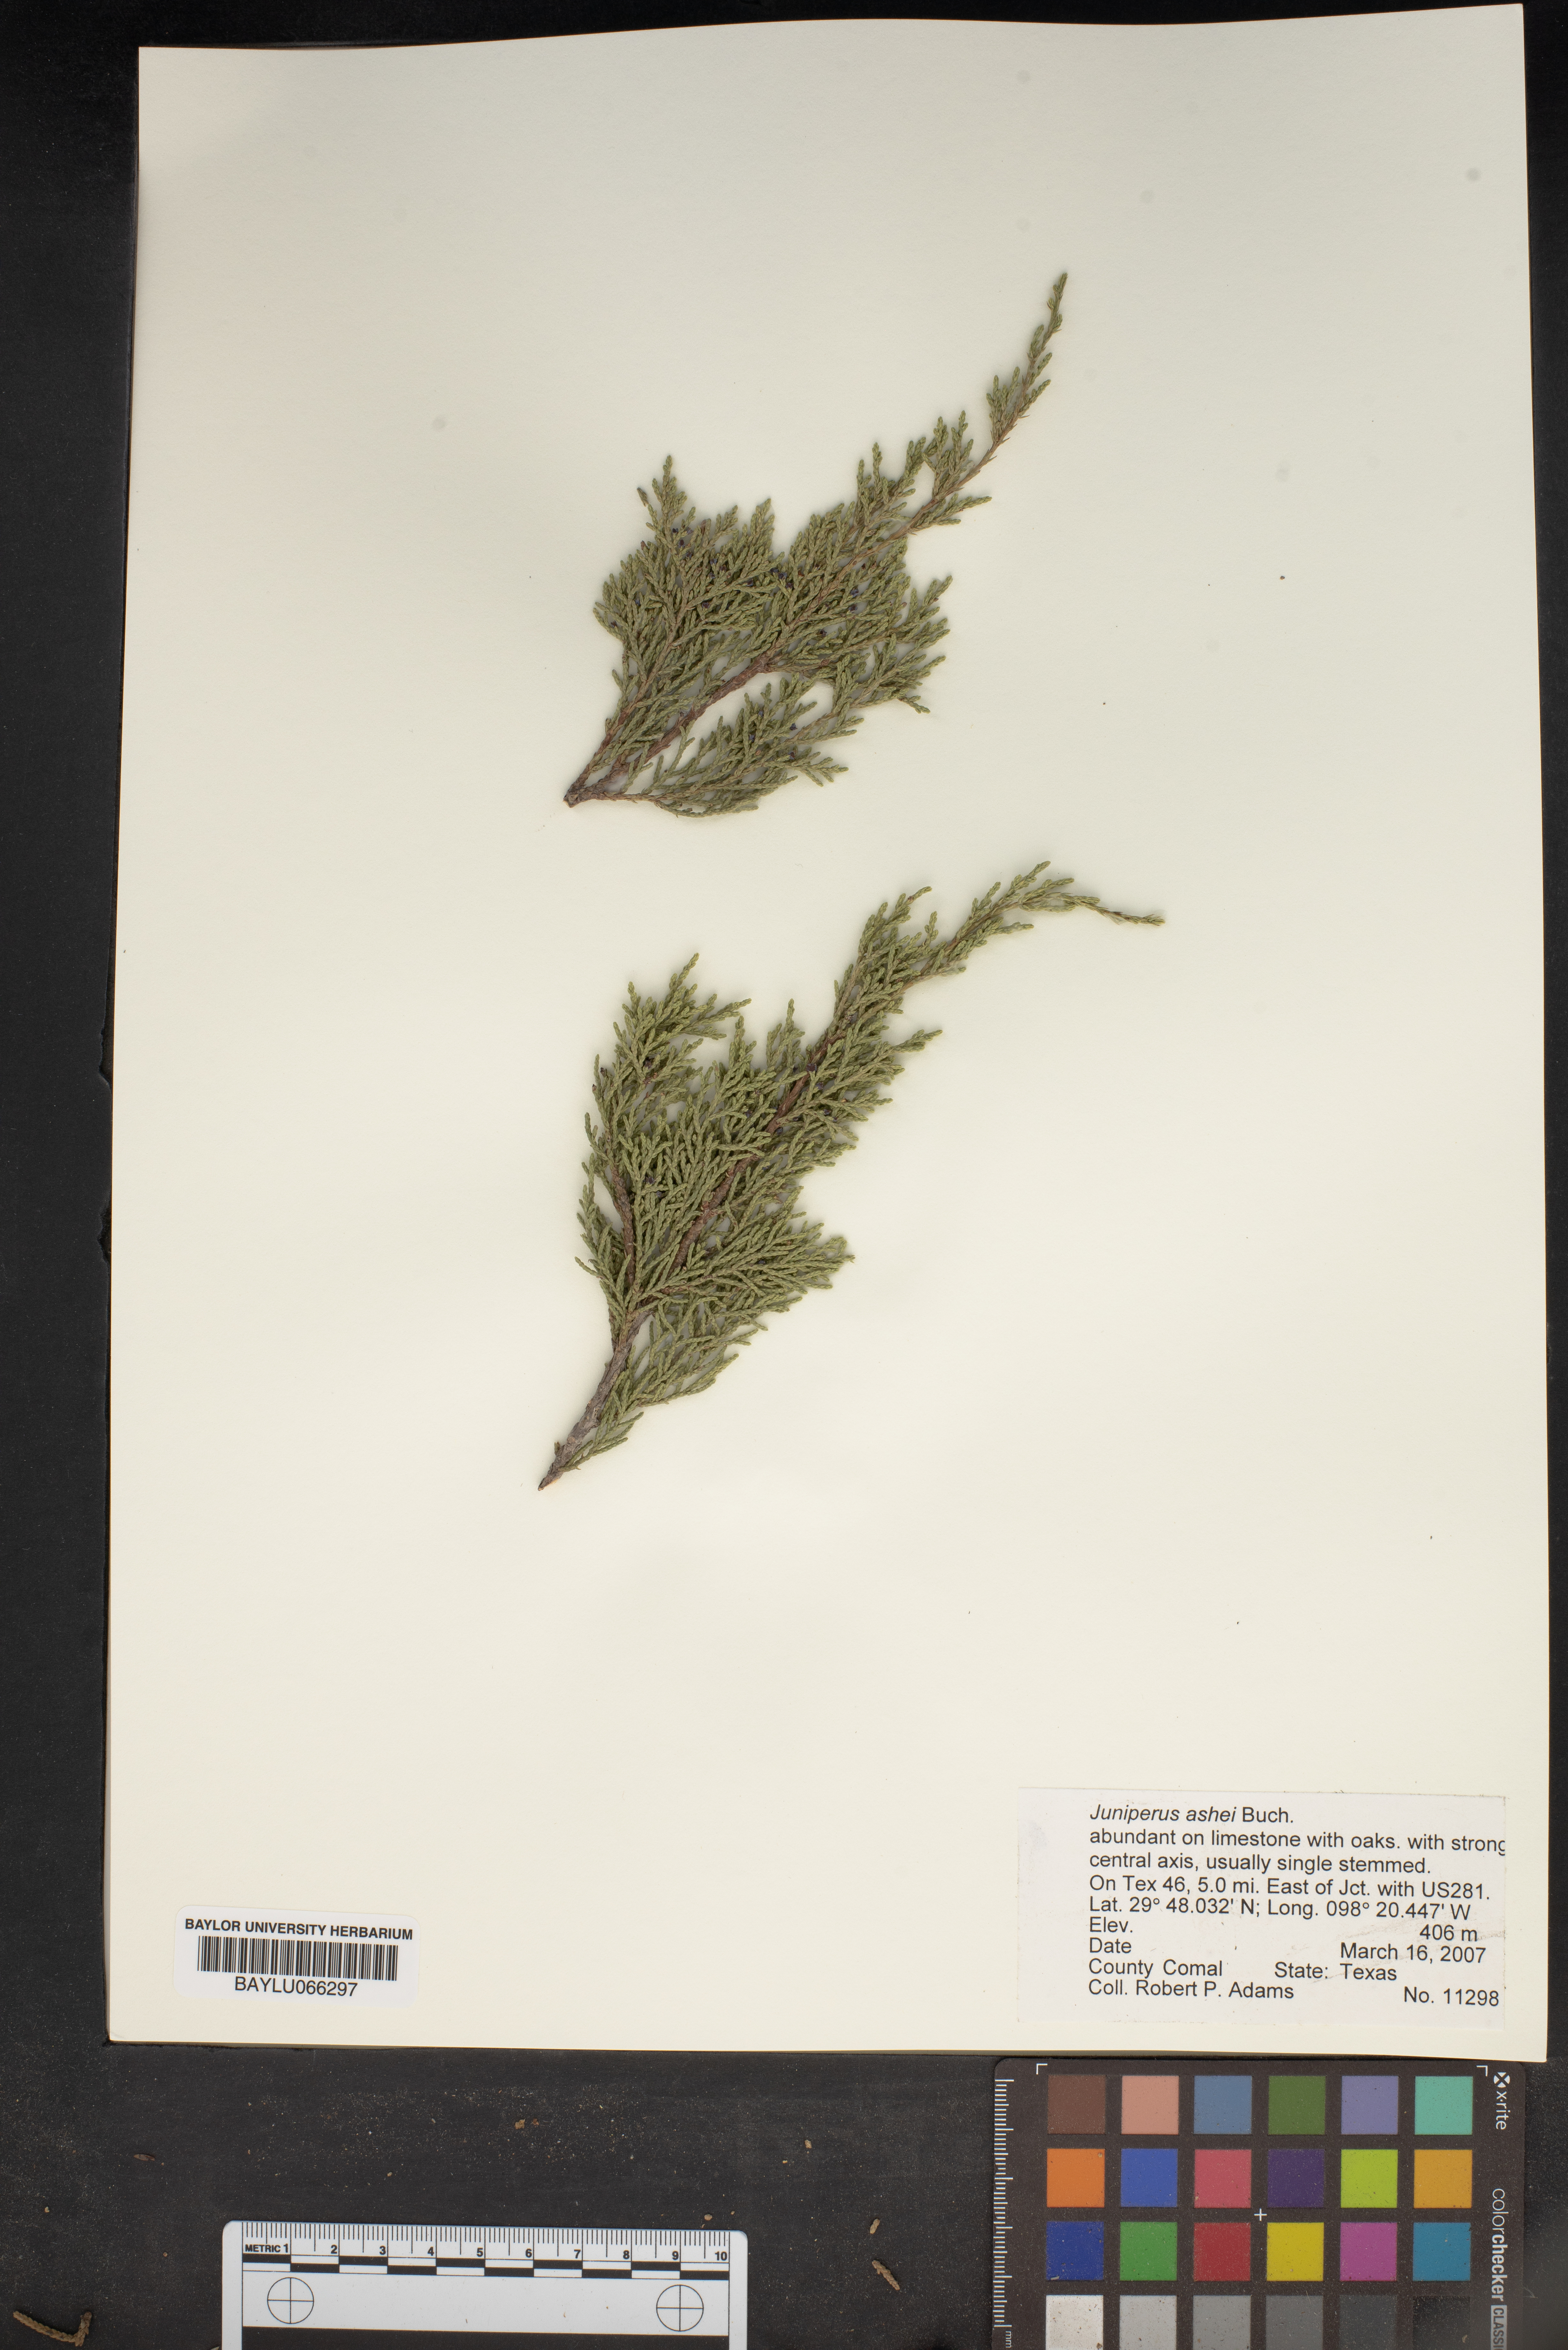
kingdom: Plantae
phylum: Tracheophyta
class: Pinopsida
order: Pinales
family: Cupressaceae
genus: Juniperus
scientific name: Juniperus ashei
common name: Mexican juniper
